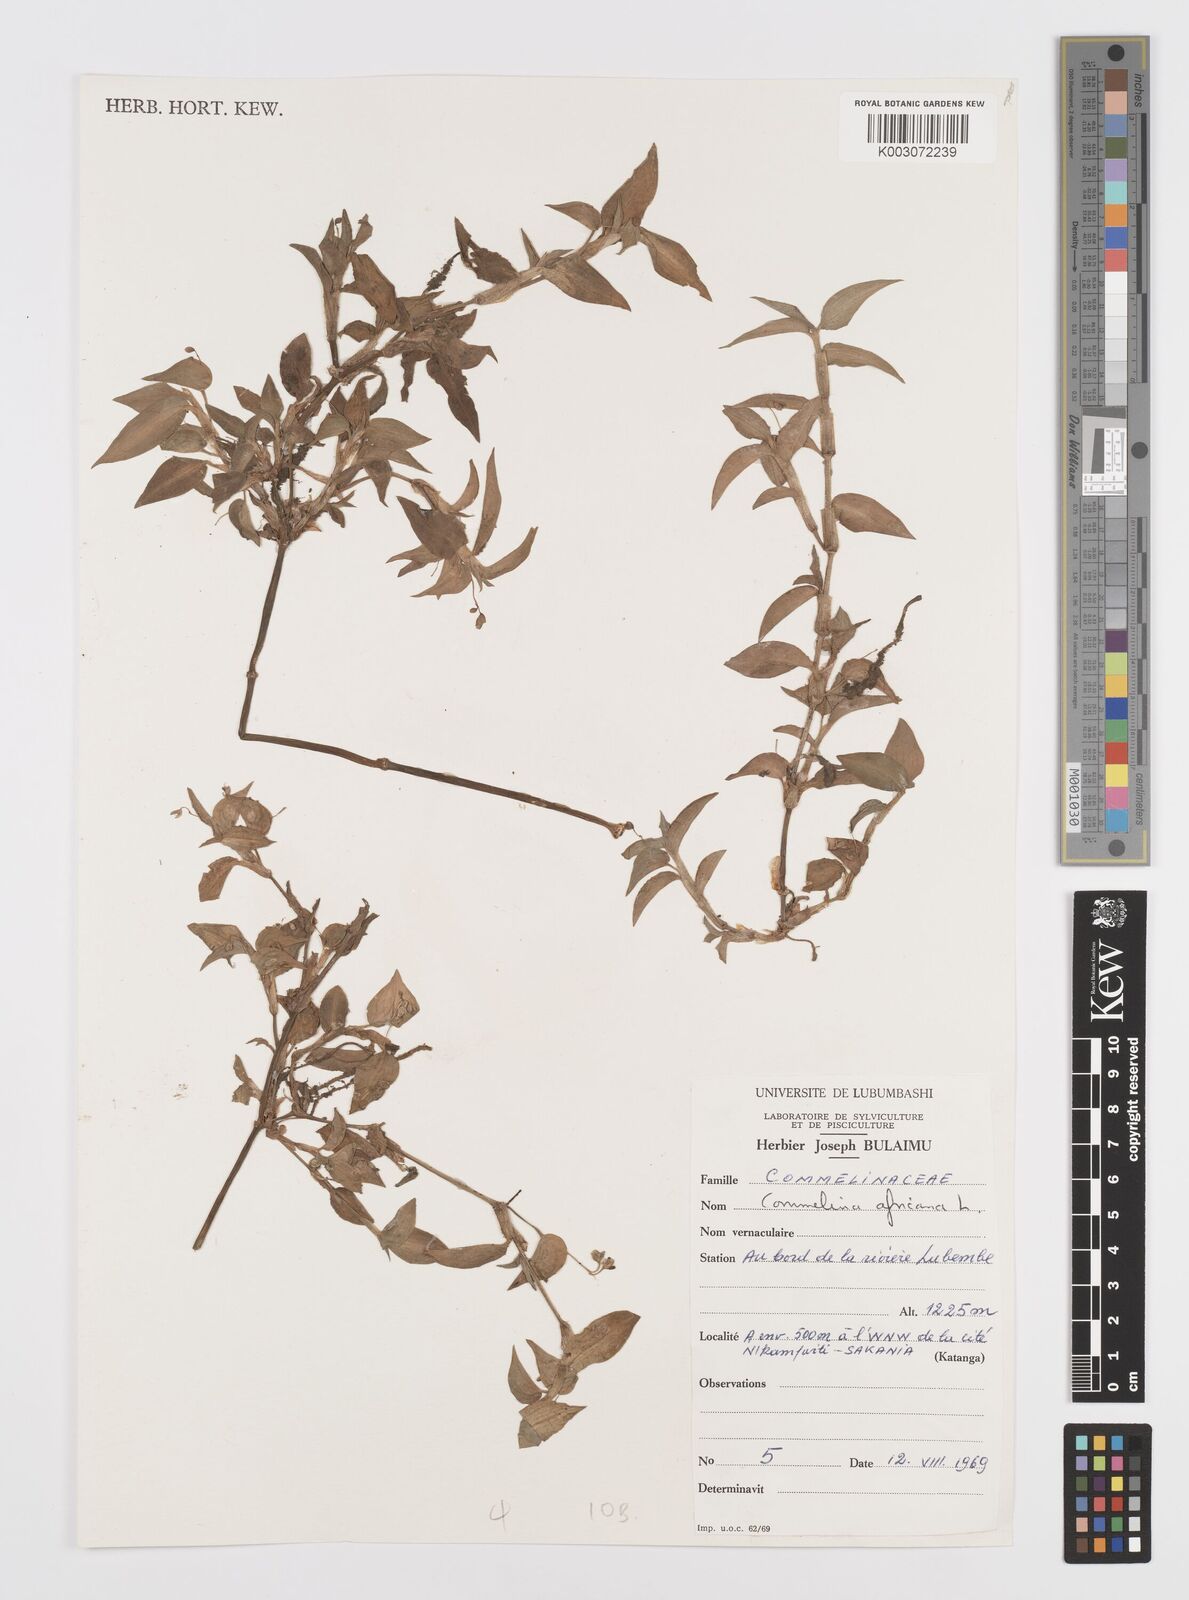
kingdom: Plantae
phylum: Tracheophyta
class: Liliopsida
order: Commelinales
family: Commelinaceae
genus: Commelina
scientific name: Commelina africana
